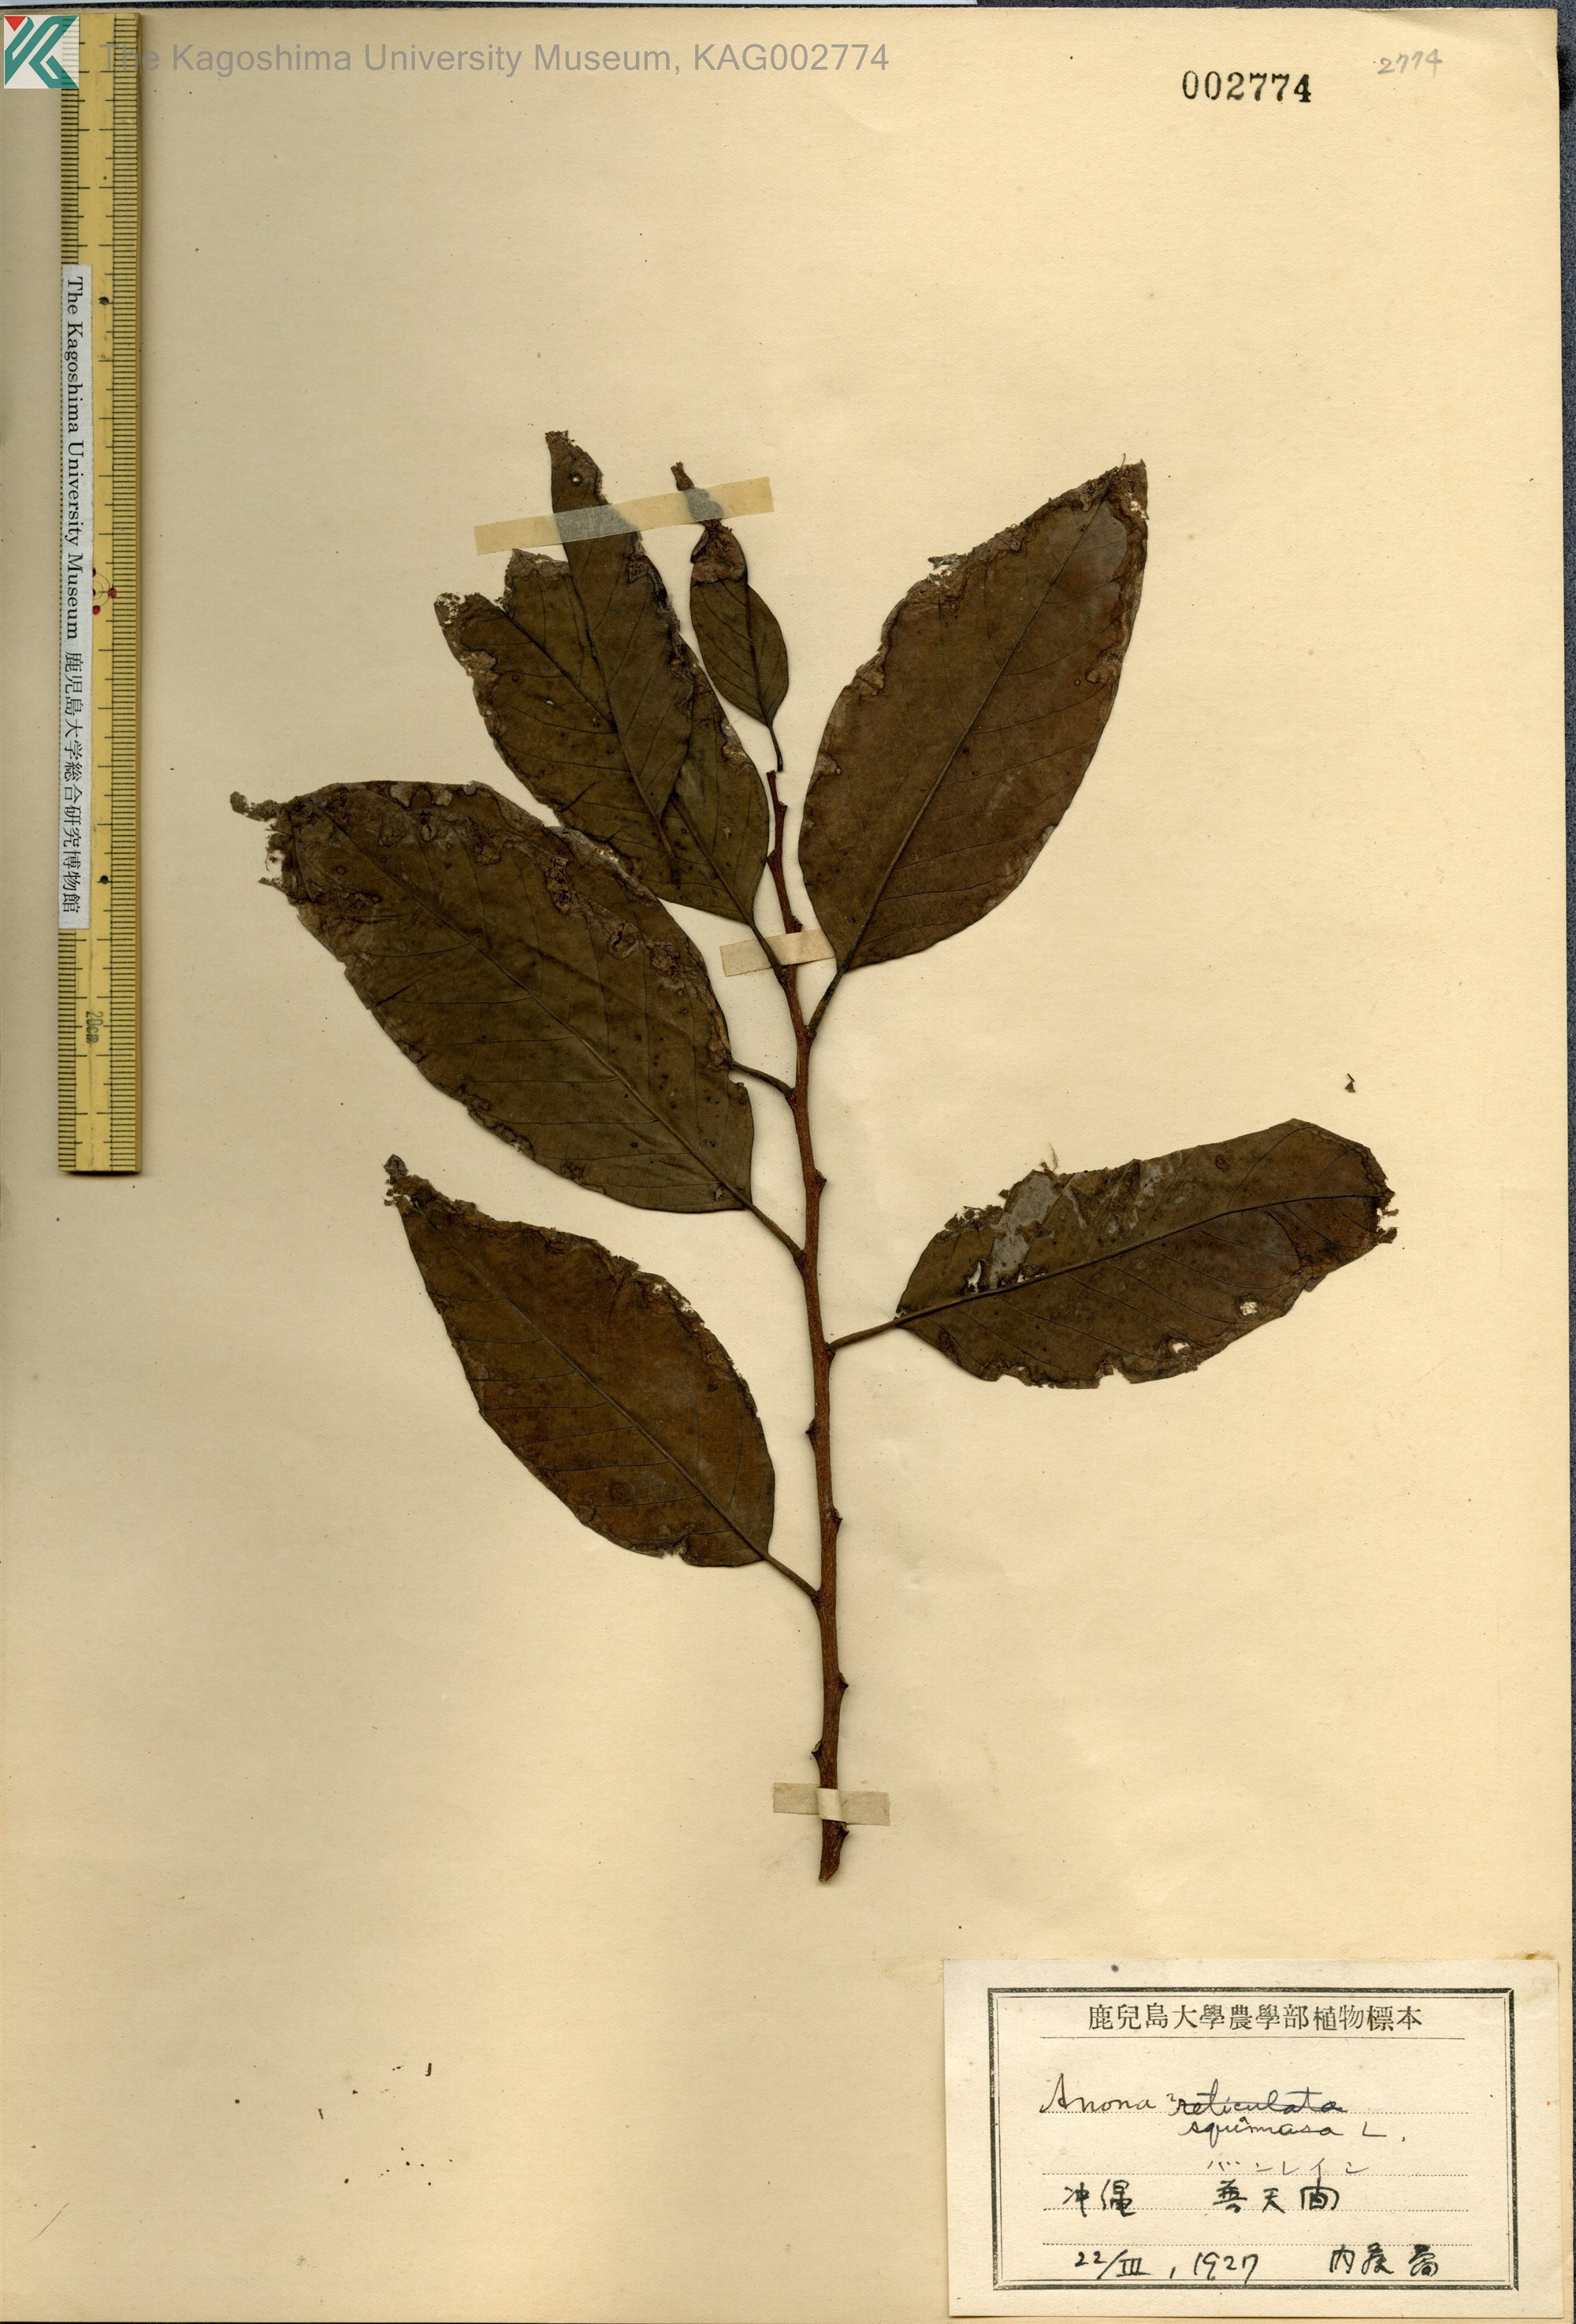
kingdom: Plantae
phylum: Tracheophyta
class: Magnoliopsida
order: Magnoliales
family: Annonaceae
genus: Annona
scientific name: Annona squamosa
